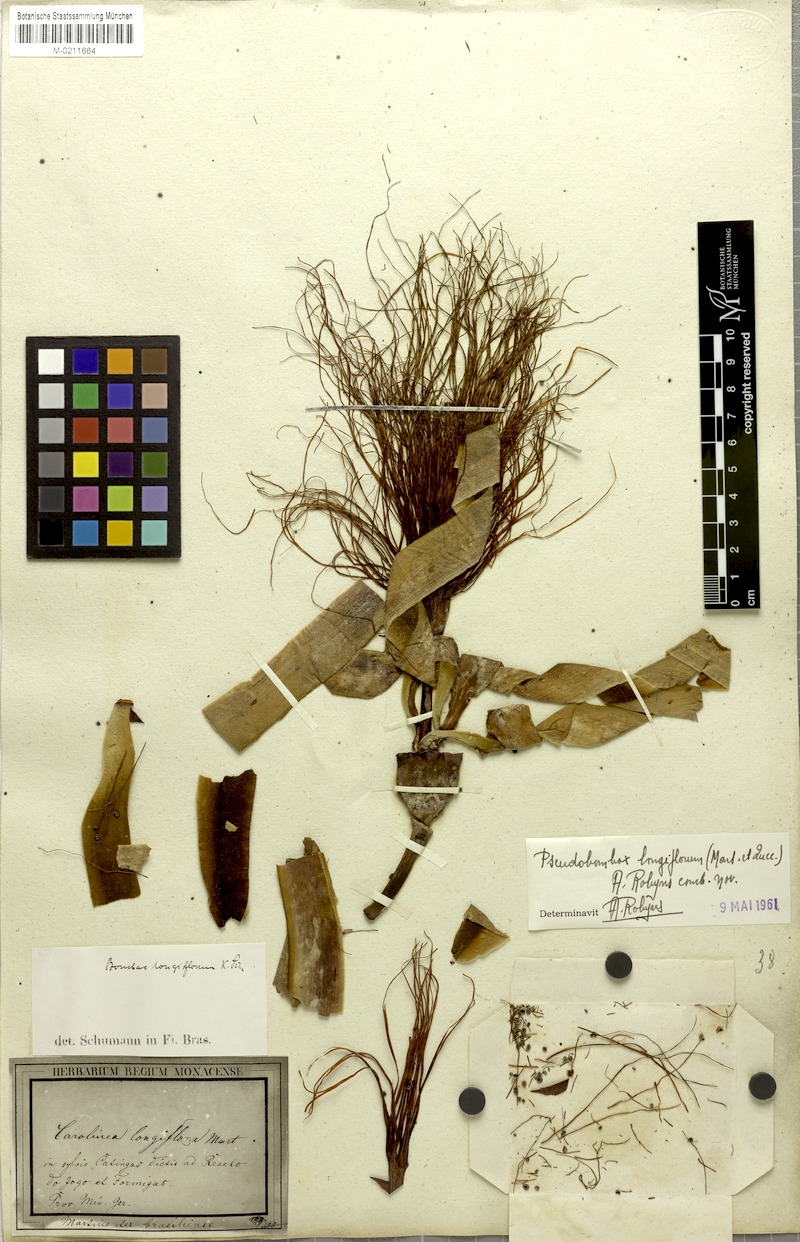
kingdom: Plantae
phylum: Tracheophyta
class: Magnoliopsida
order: Malvales
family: Malvaceae
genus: Pseudobombax
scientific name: Pseudobombax longiflorum
